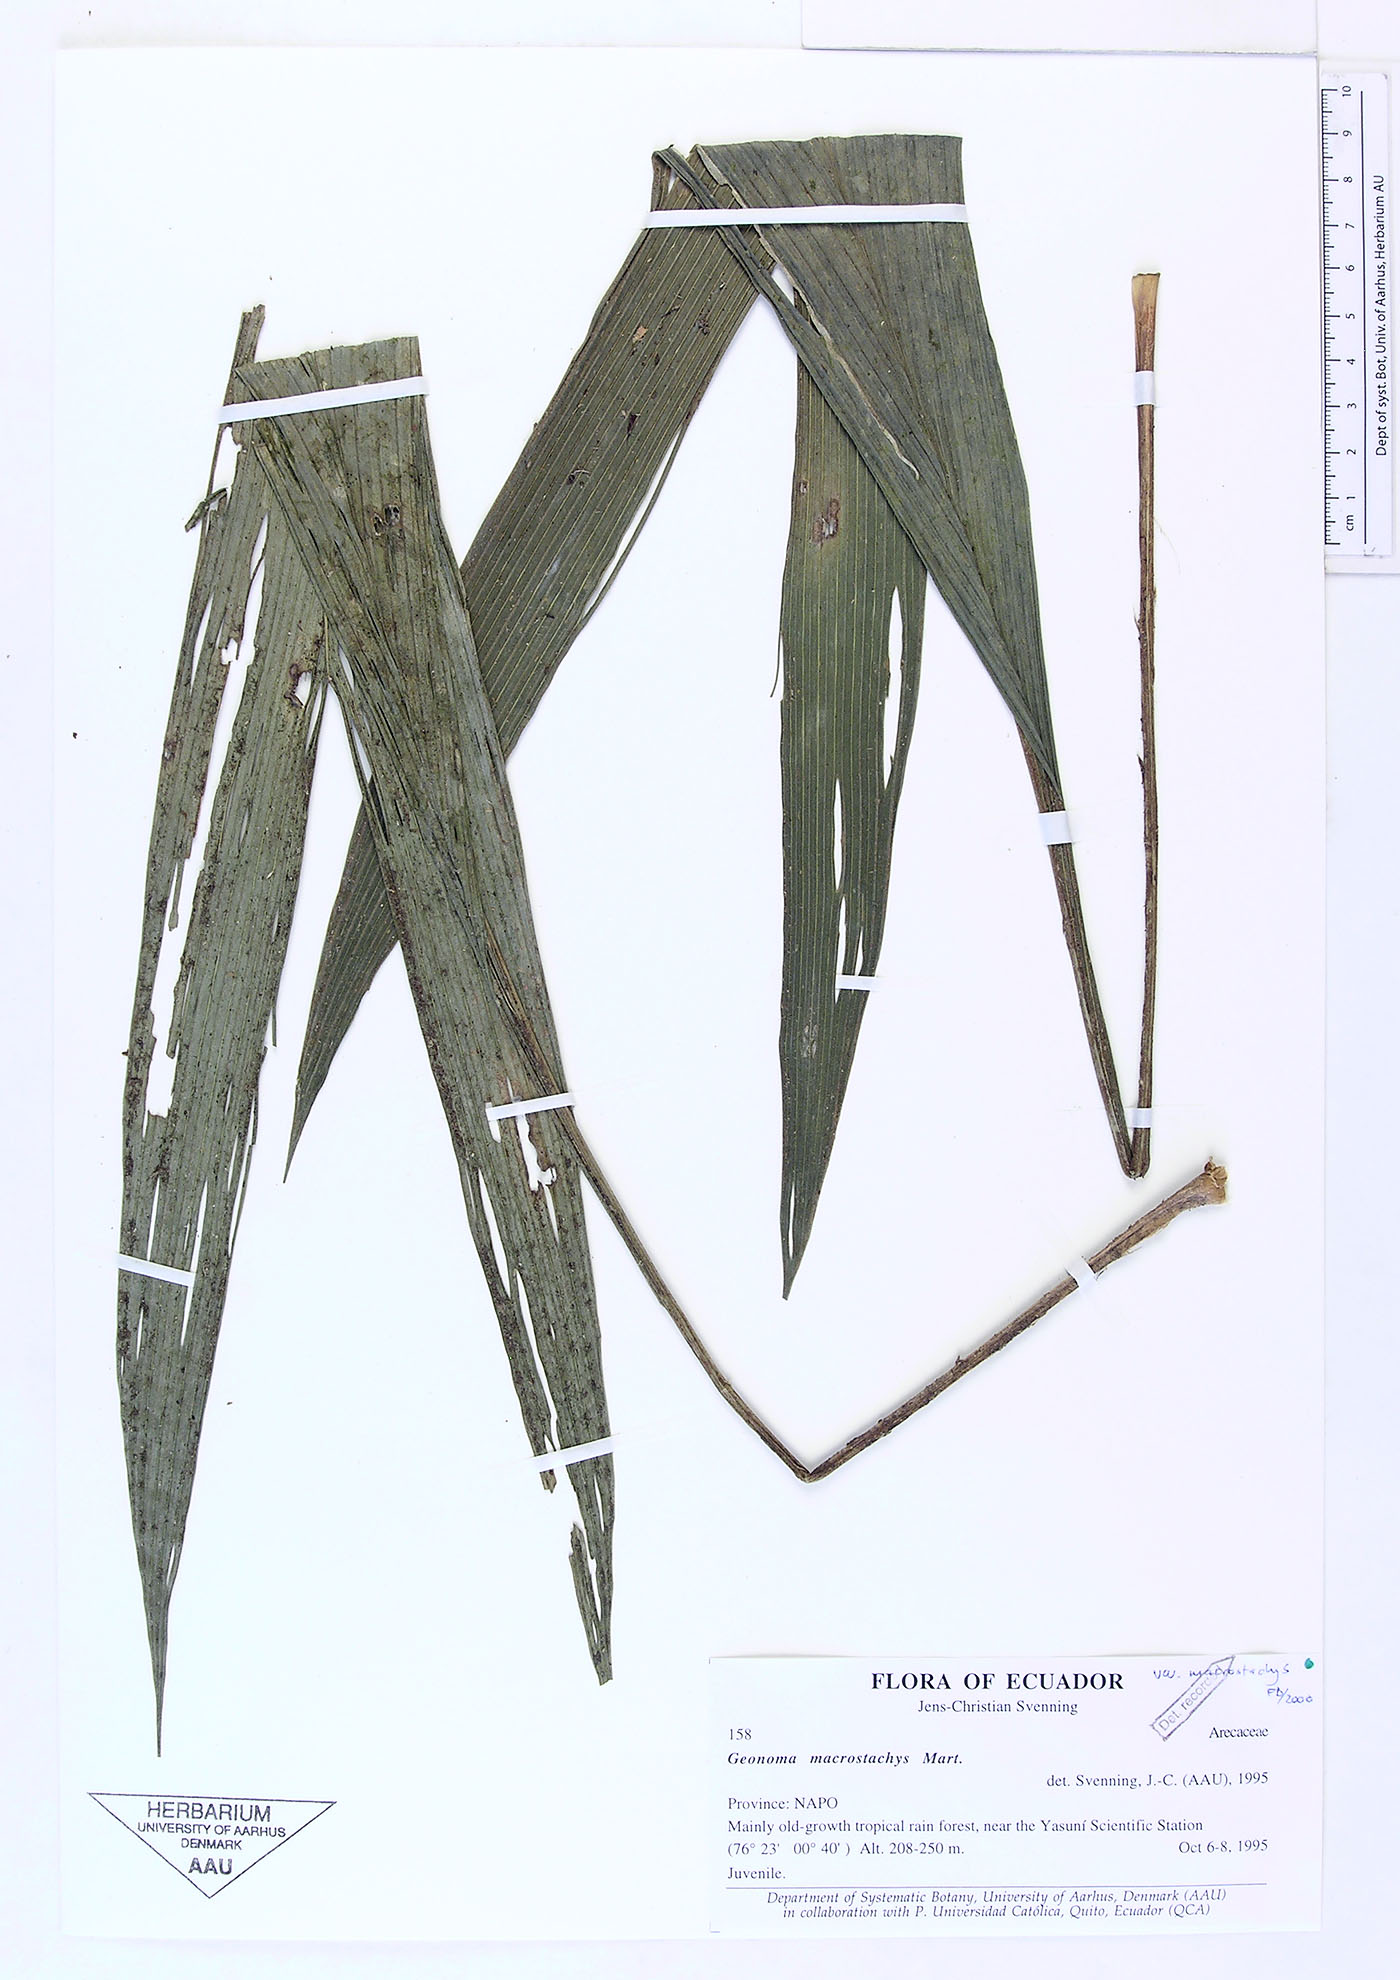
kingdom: Plantae
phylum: Tracheophyta
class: Liliopsida
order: Arecales
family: Arecaceae
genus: Geonoma
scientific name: Geonoma macrostachys
